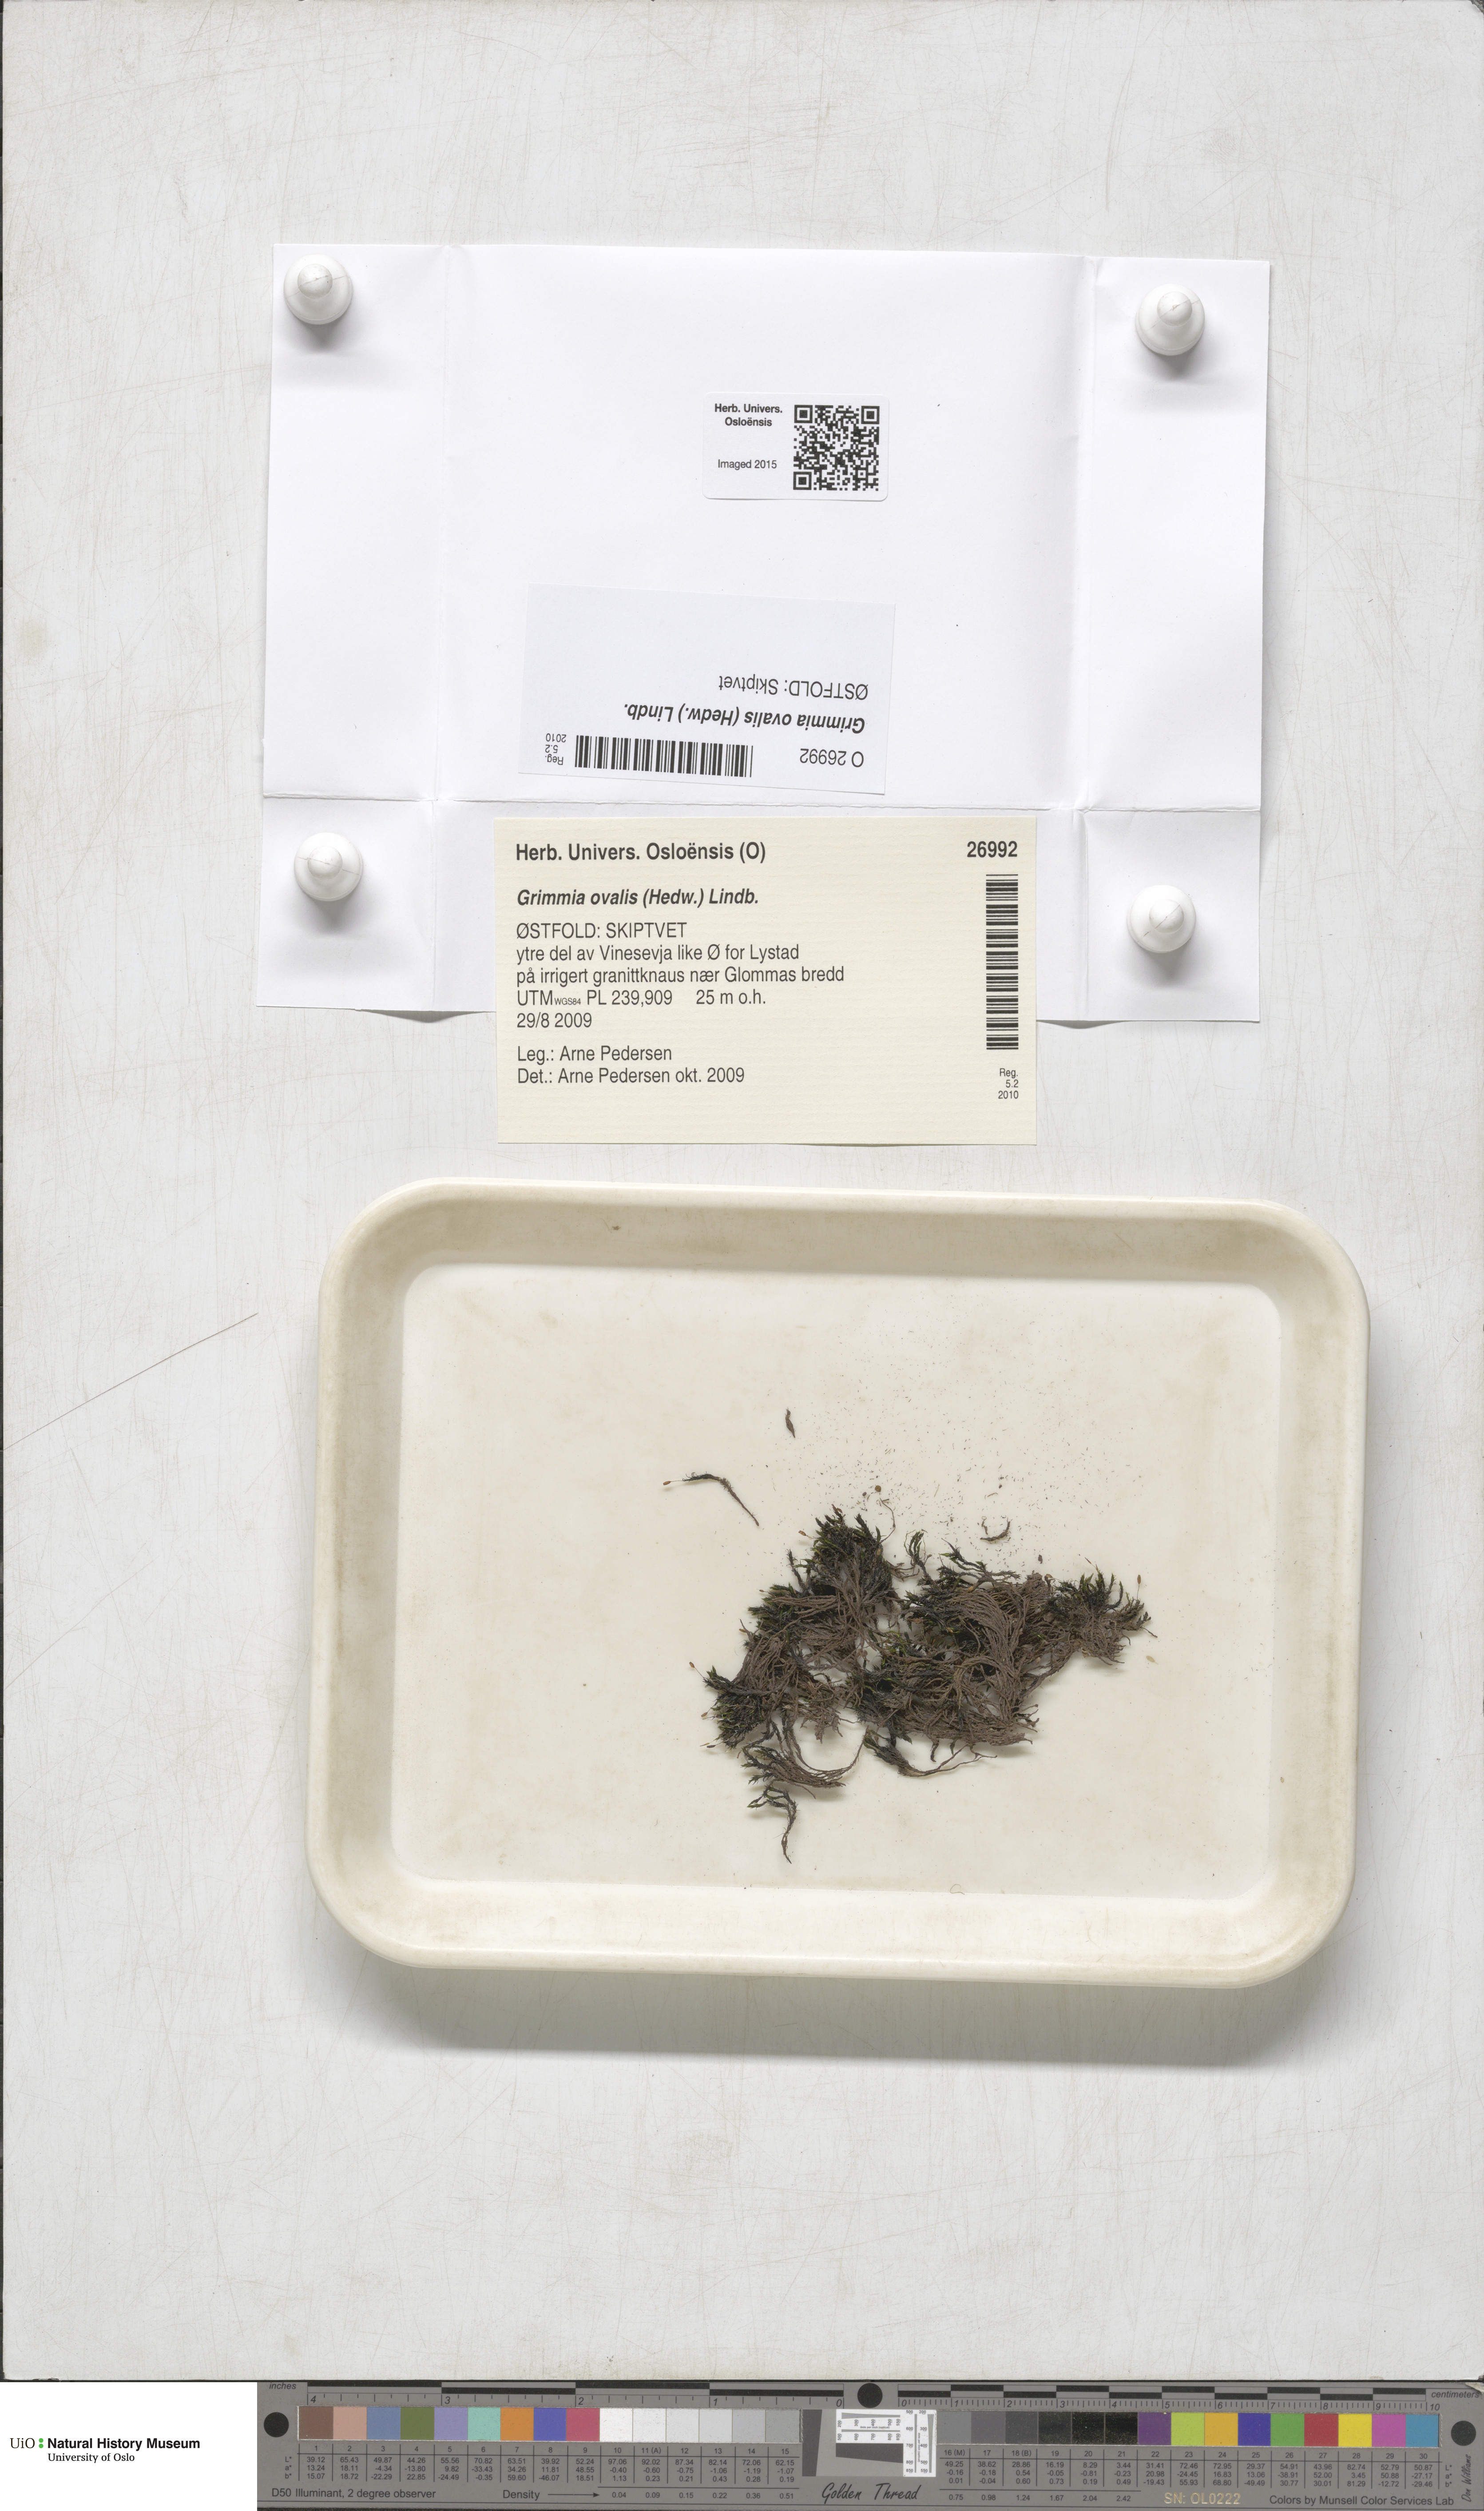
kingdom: Plantae
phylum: Bryophyta
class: Bryopsida
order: Grimmiales
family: Grimmiaceae
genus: Grimmia
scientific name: Grimmia ovalis
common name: Oval grimmia
